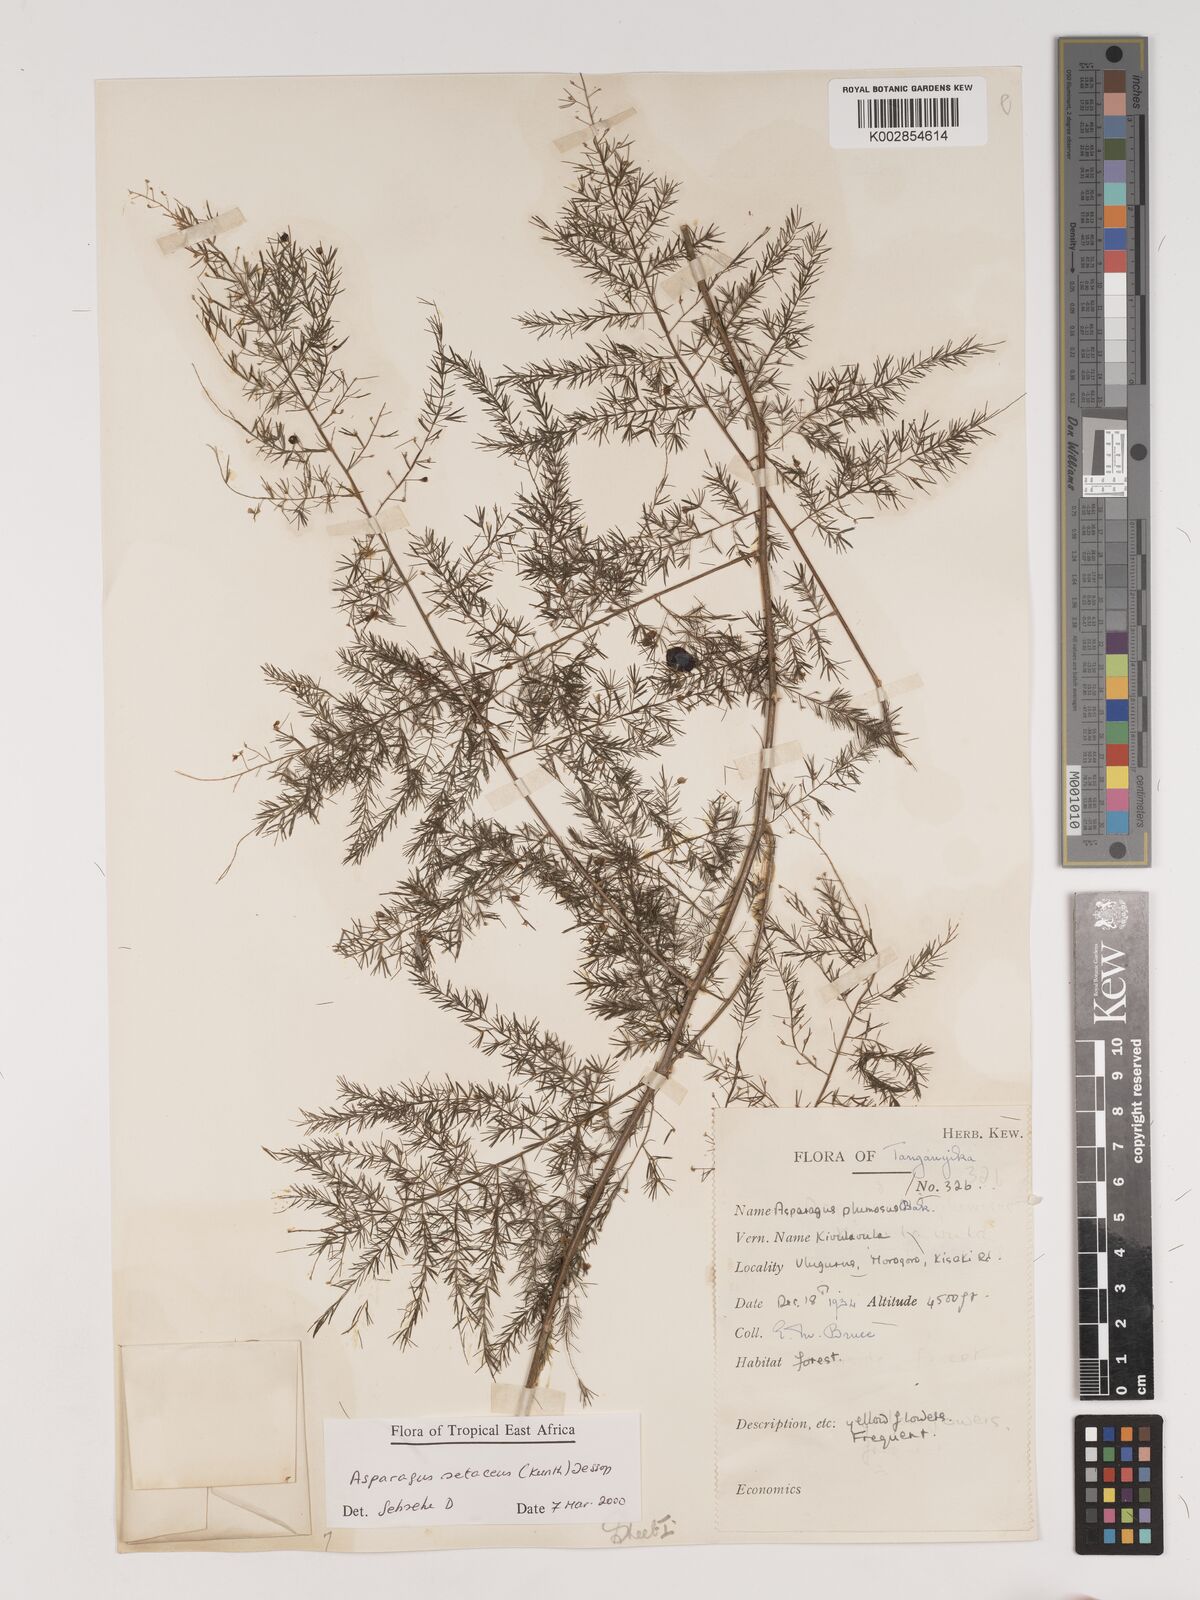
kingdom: Plantae
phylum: Tracheophyta
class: Liliopsida
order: Asparagales
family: Asparagaceae
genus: Asparagus
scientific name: Asparagus setaceus
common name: Common asparagus fern
